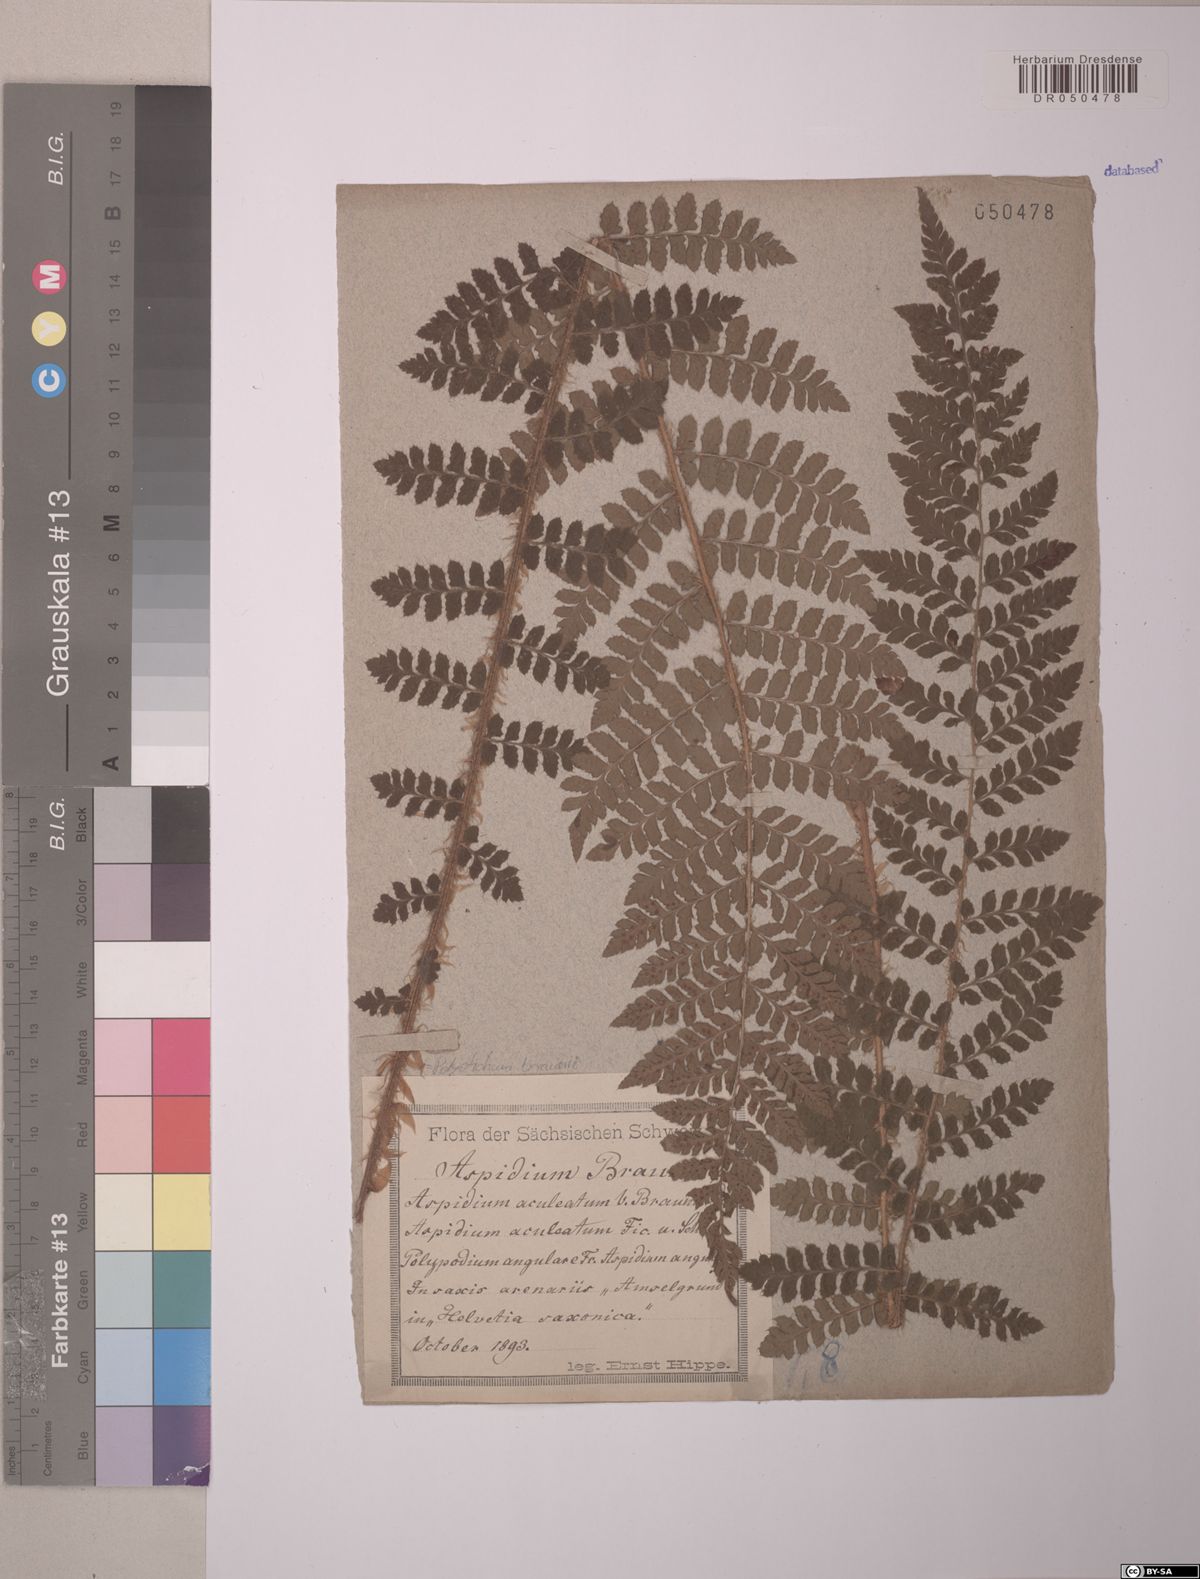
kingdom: Plantae
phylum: Tracheophyta
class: Polypodiopsida
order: Polypodiales
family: Dryopteridaceae
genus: Polystichum
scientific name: Polystichum braunii
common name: Braun's holly fern
